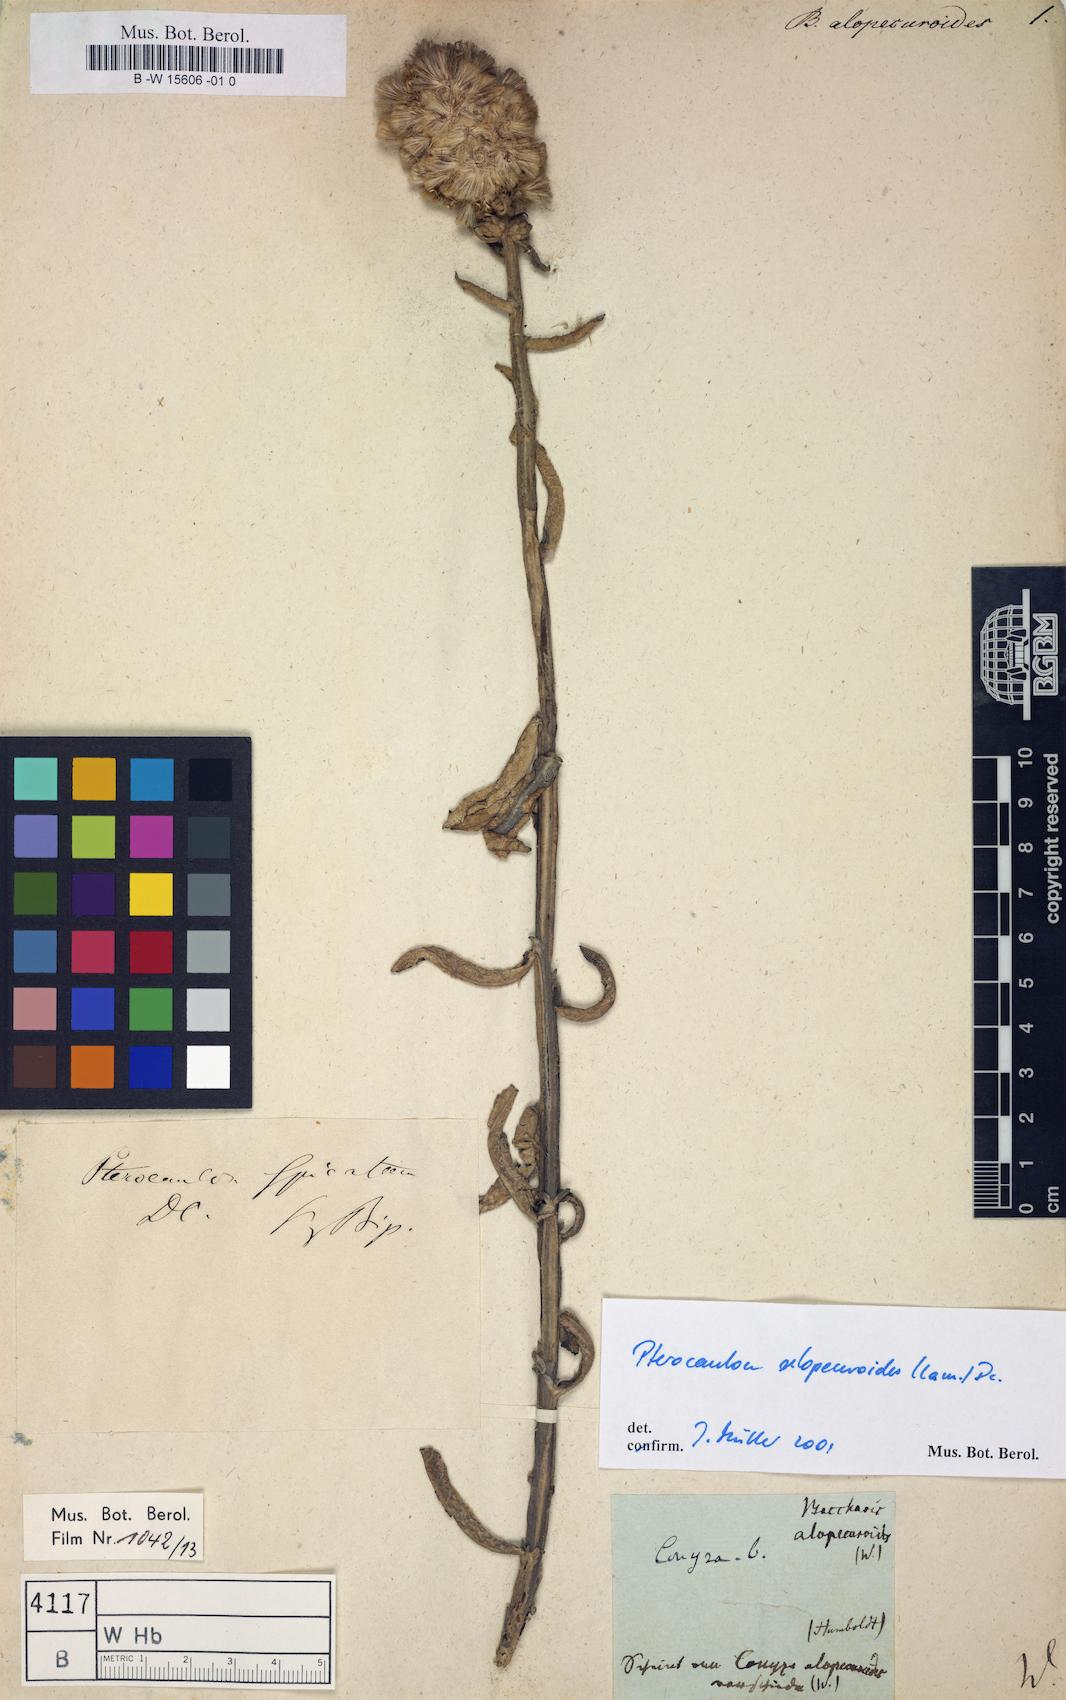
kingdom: Plantae
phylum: Tracheophyta
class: Magnoliopsida
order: Asterales
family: Asteraceae
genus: Baccharis
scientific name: Baccharis
